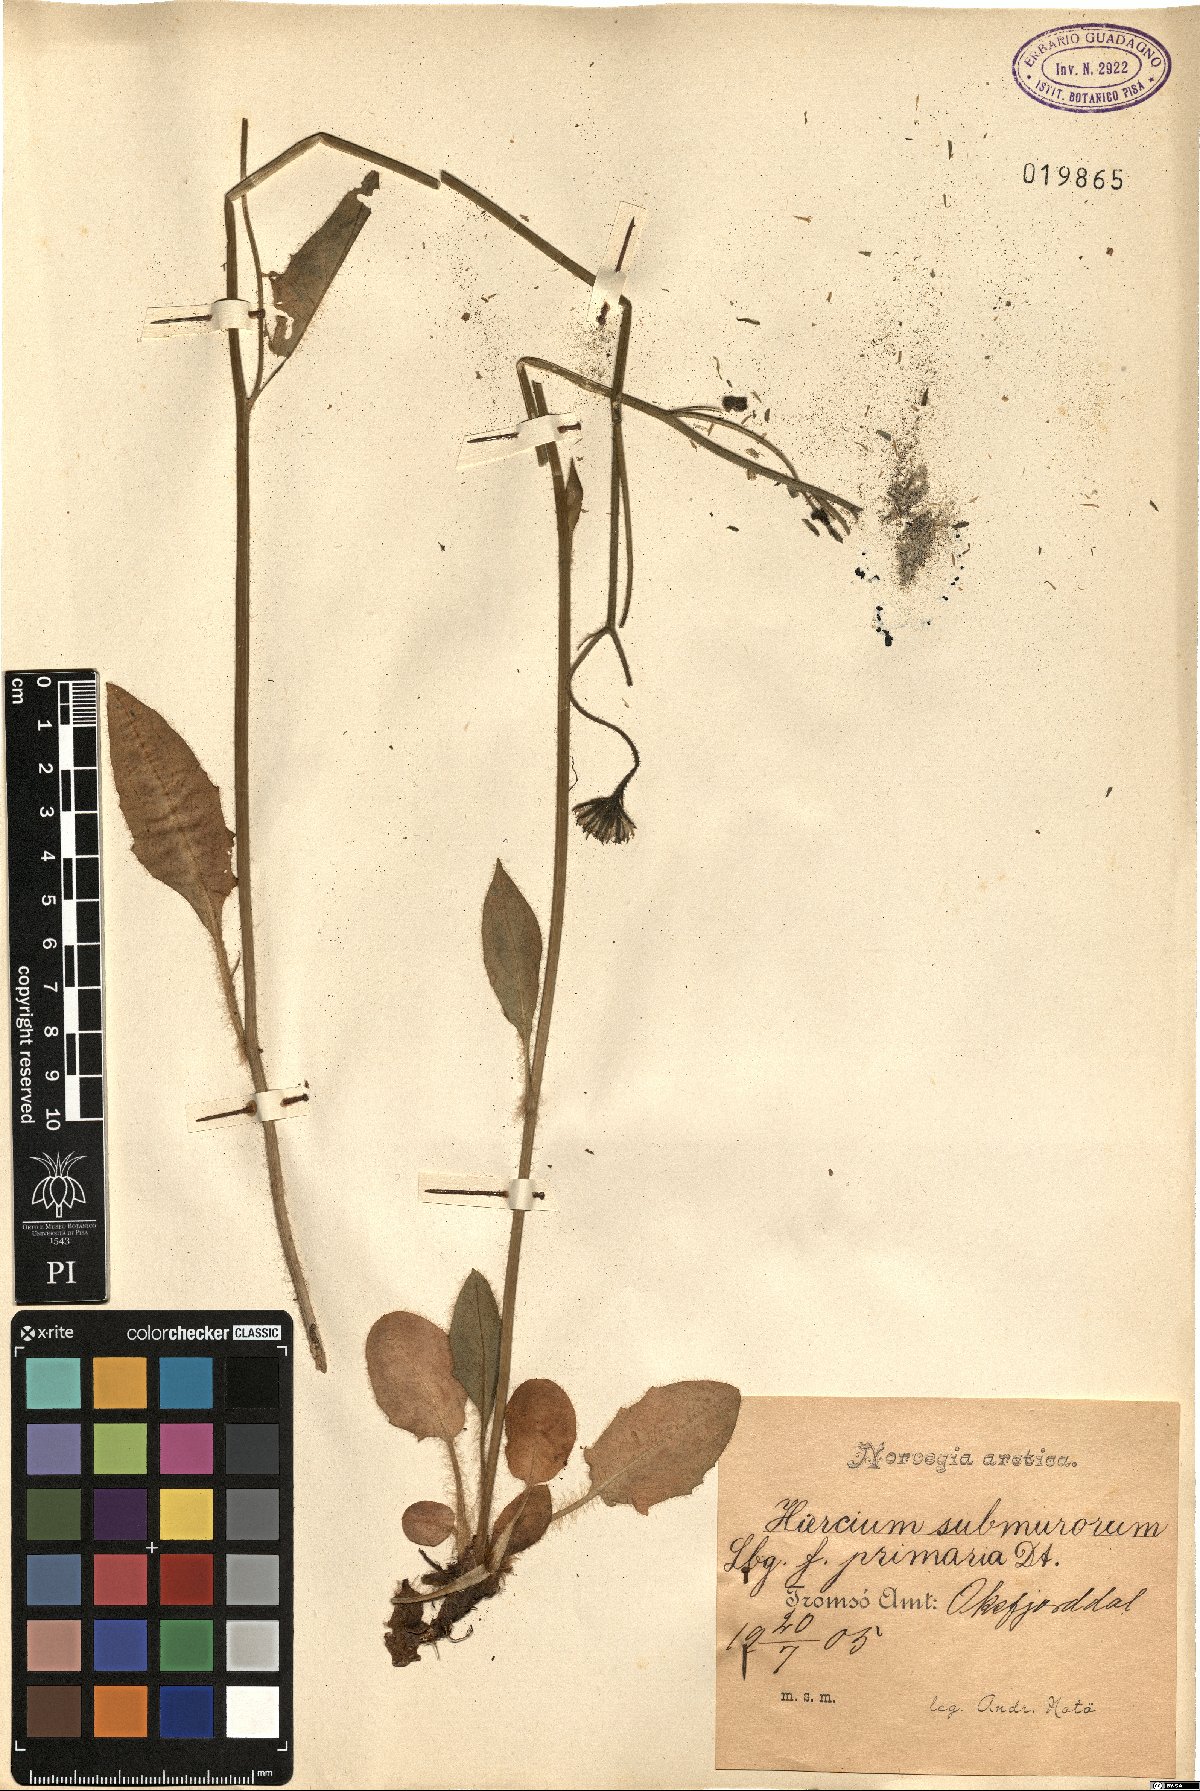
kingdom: Plantae
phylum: Tracheophyta
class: Magnoliopsida
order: Asterales
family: Asteraceae
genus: Hieracium
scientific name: Hieracium submurorum
